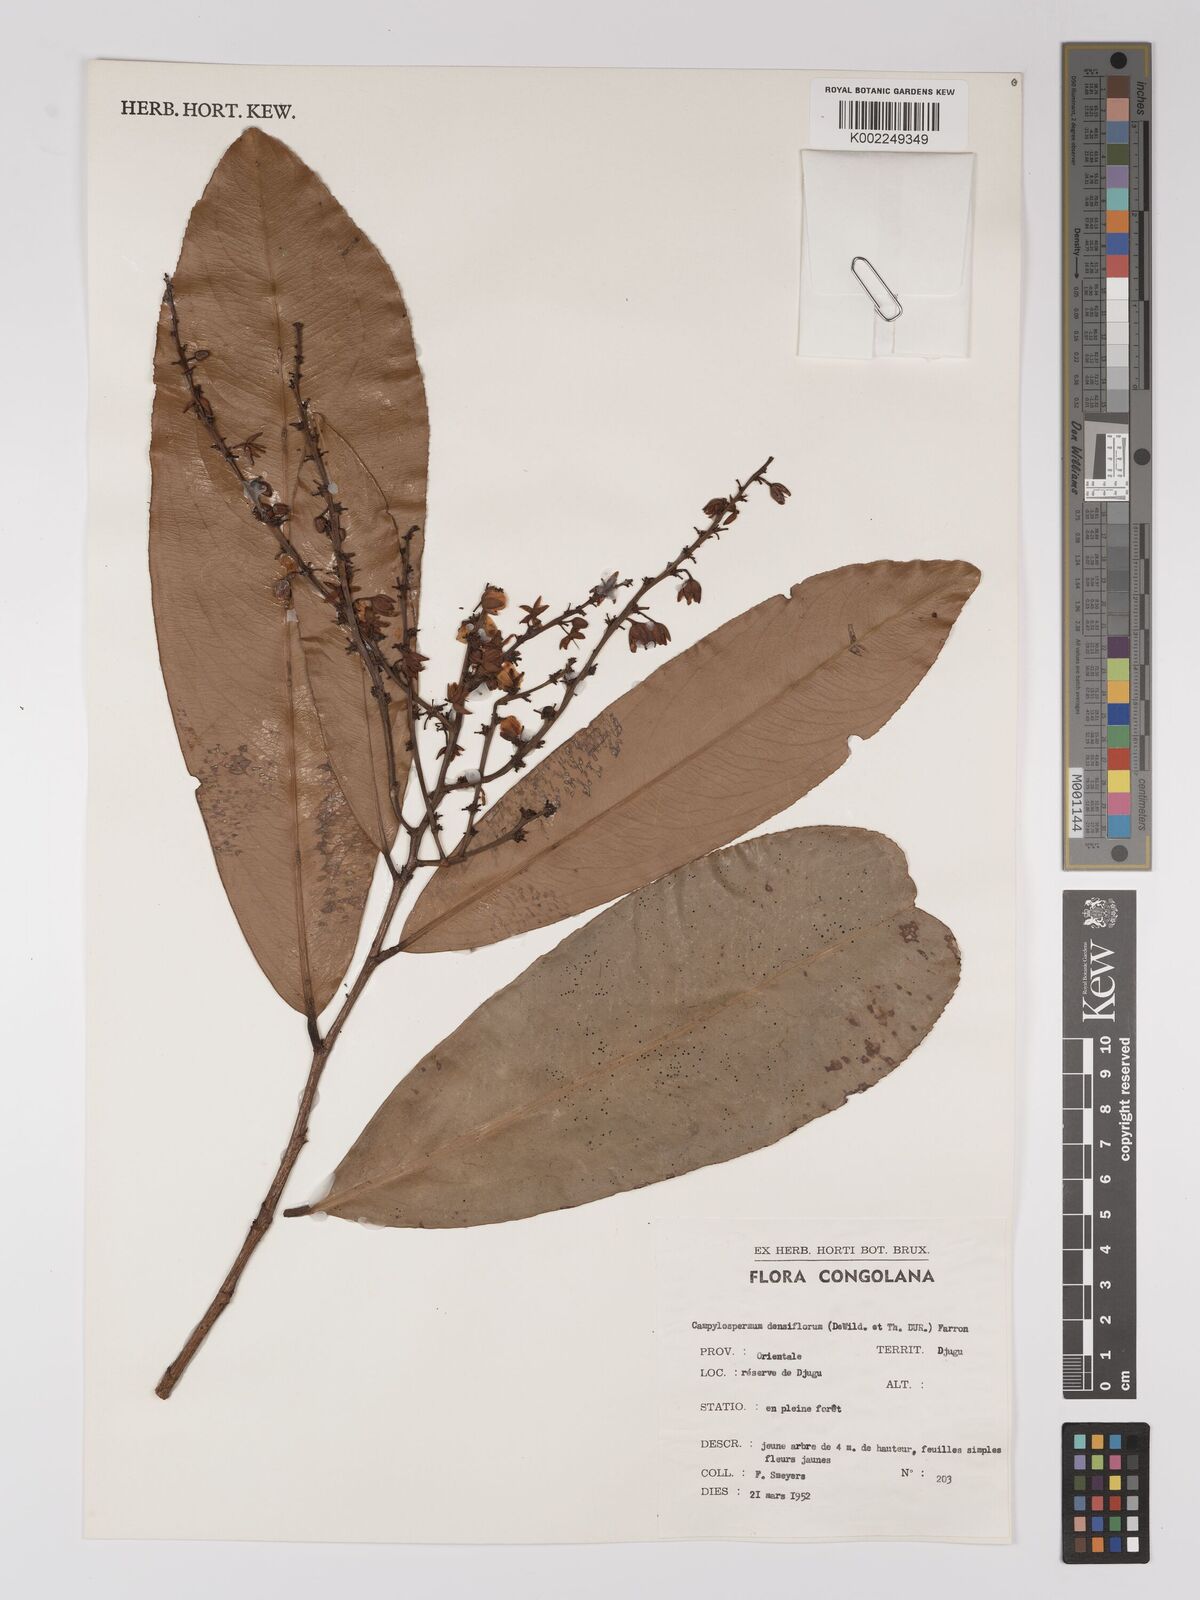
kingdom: Plantae
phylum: Tracheophyta
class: Magnoliopsida
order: Malpighiales
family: Ochnaceae
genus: Gomphia
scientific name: Gomphia densiflora
